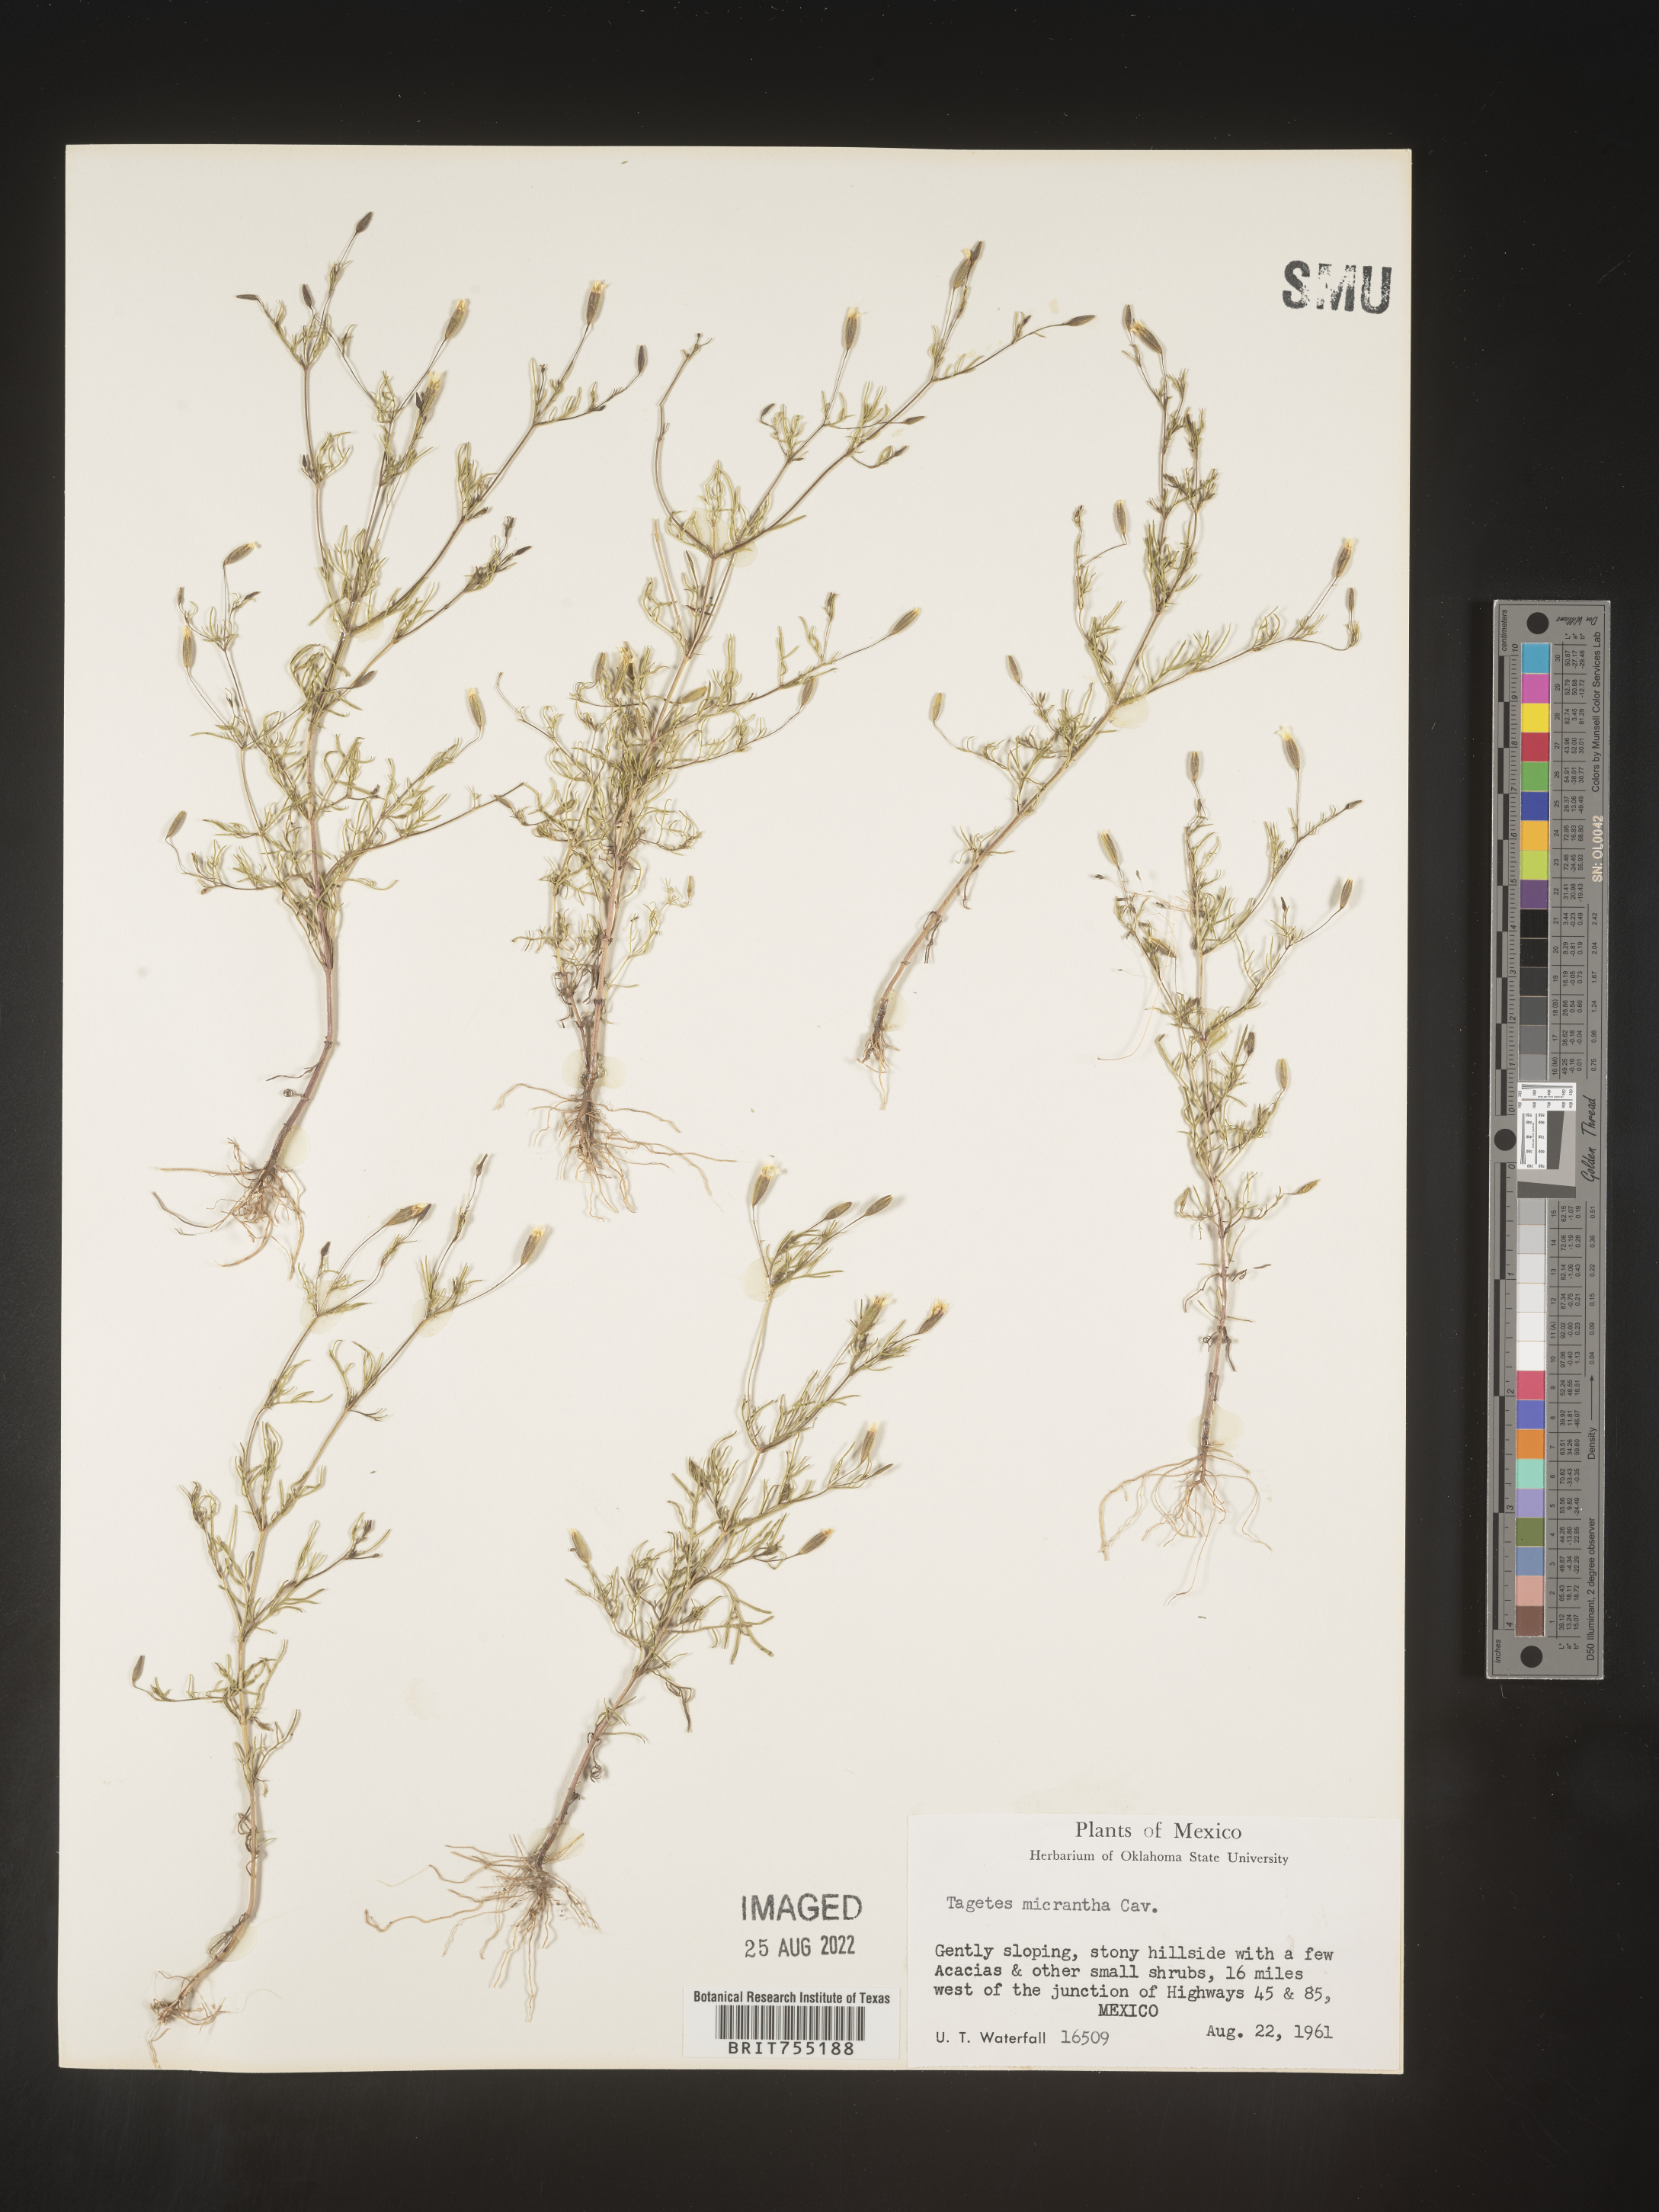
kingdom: Plantae
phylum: Tracheophyta
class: Magnoliopsida
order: Asterales
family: Asteraceae
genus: Tagetes
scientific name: Tagetes
